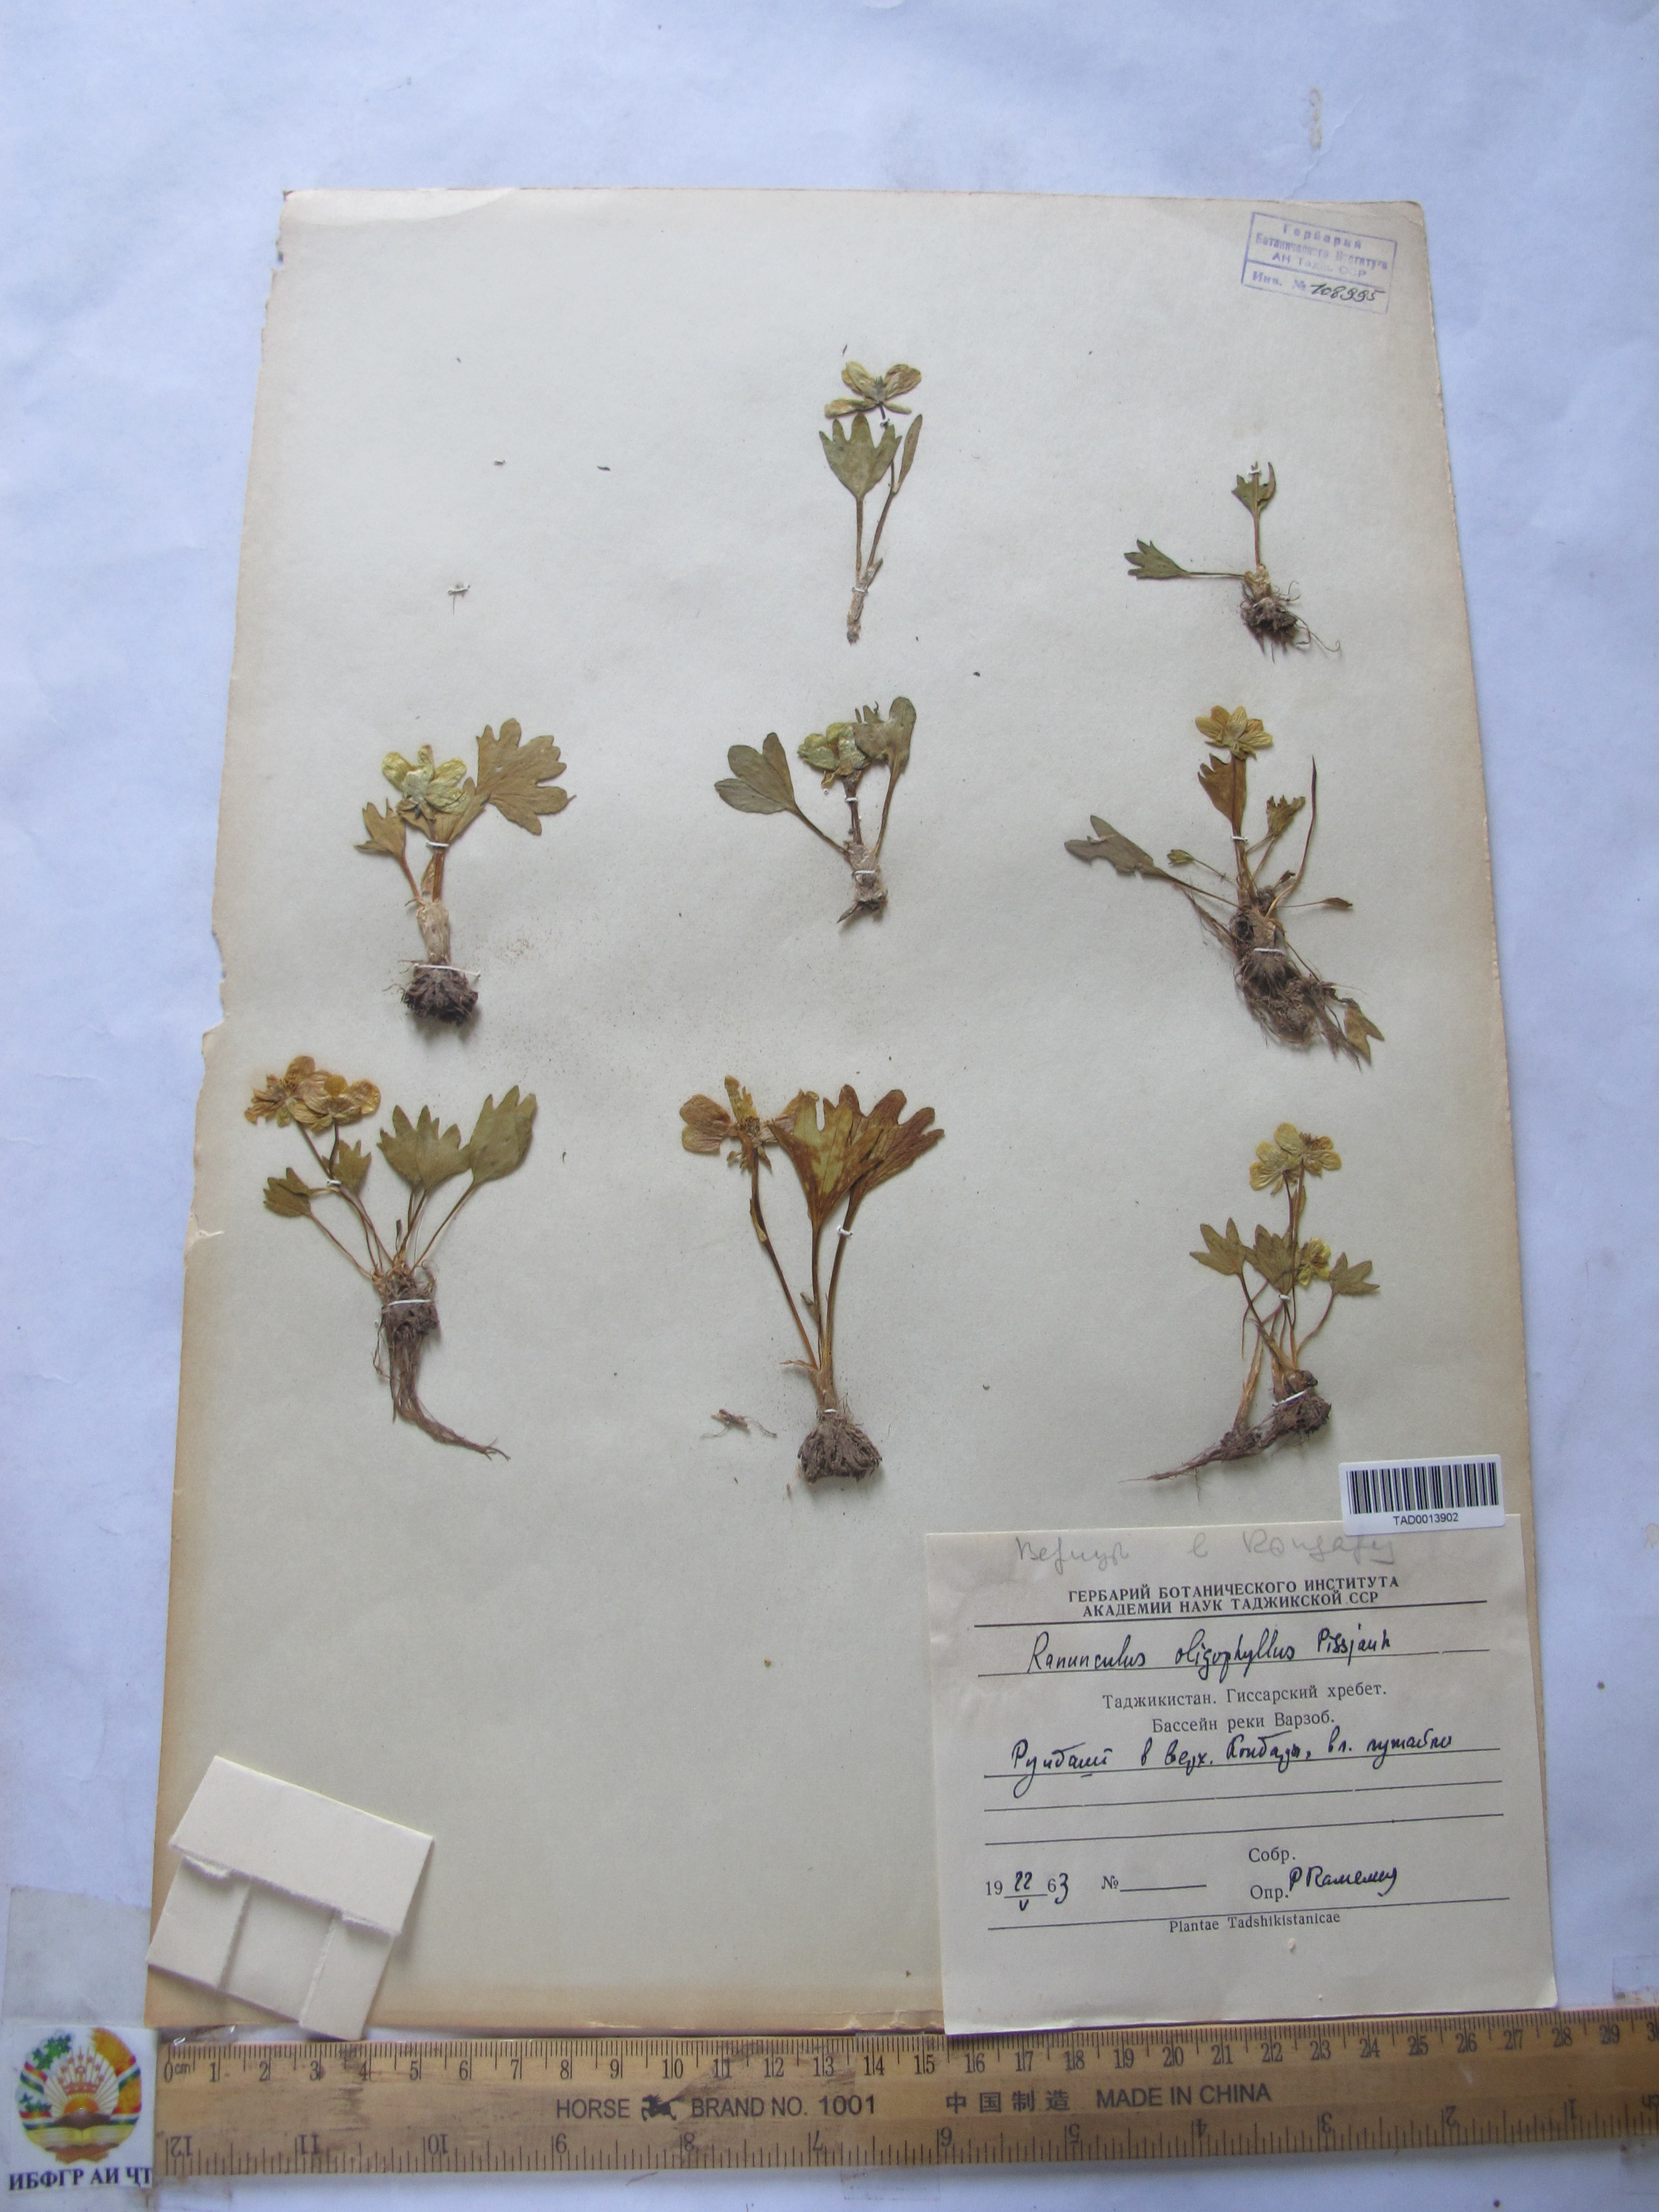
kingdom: Plantae
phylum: Tracheophyta
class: Magnoliopsida
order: Ranunculales
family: Ranunculaceae
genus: Ranunculus
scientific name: Ranunculus alaiensis
